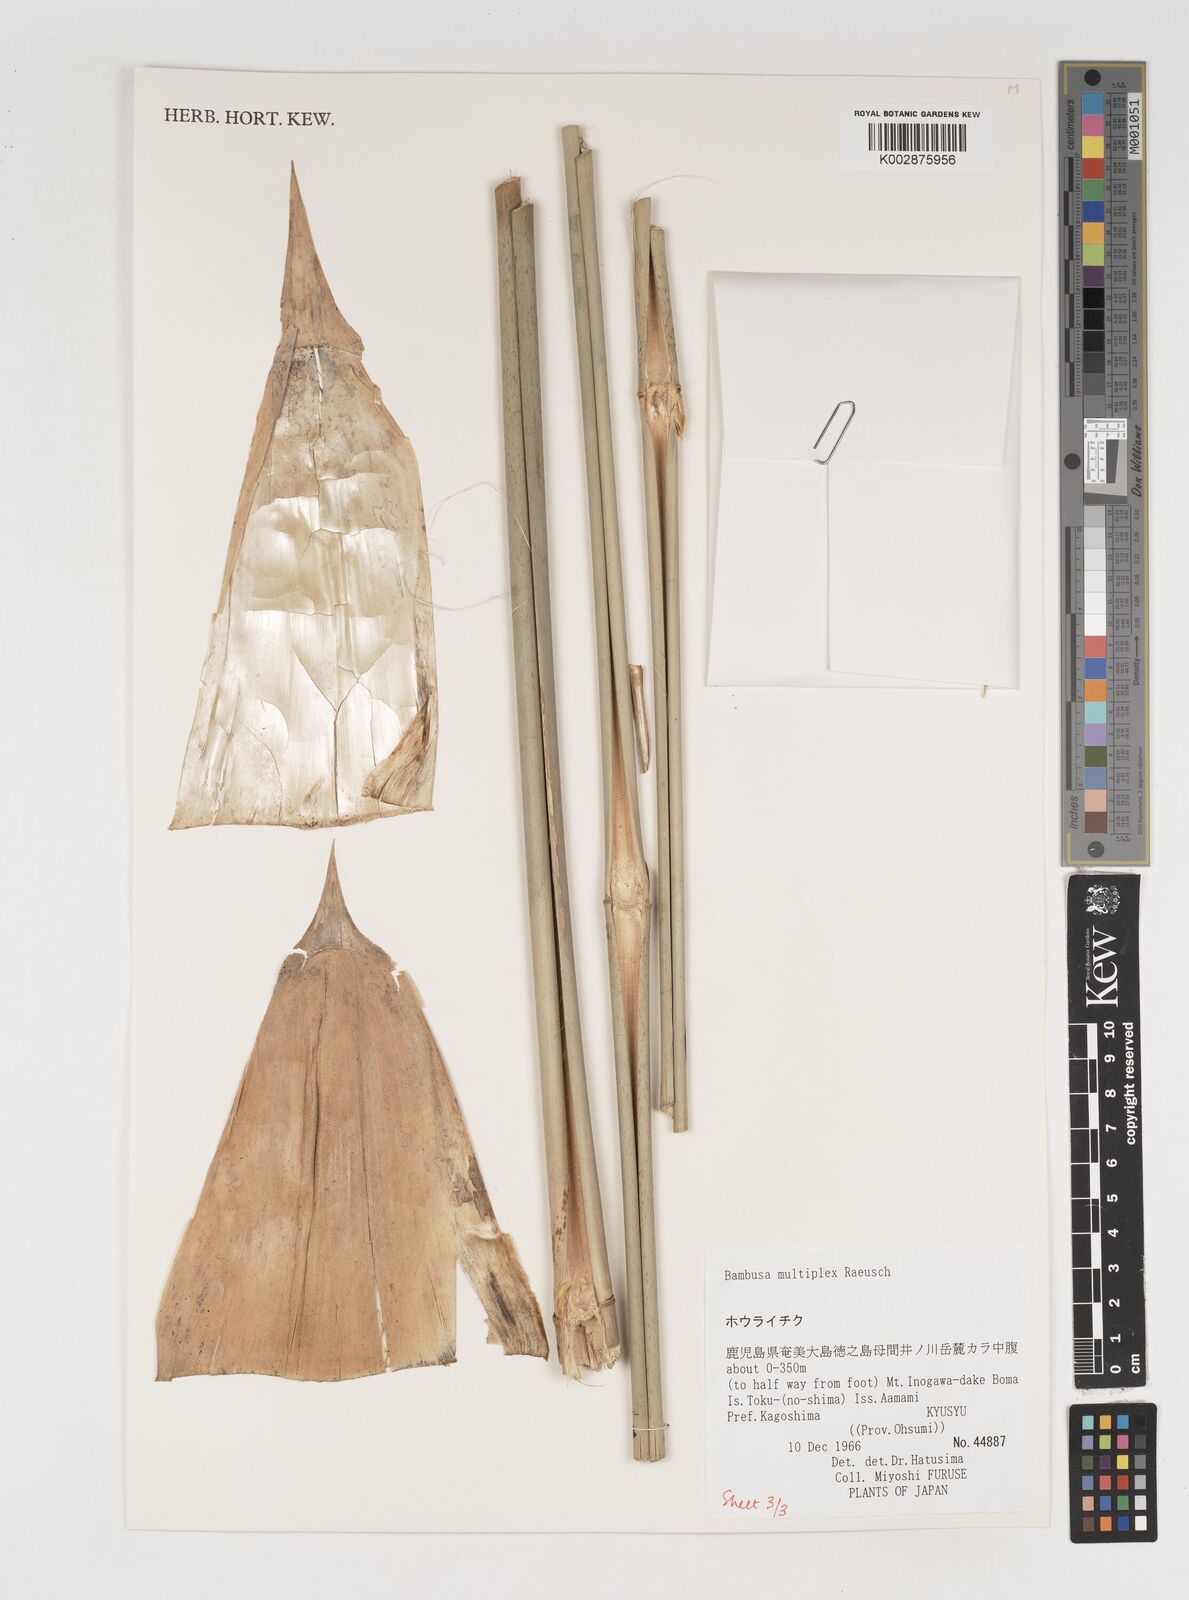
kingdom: Plantae
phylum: Tracheophyta
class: Liliopsida
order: Poales
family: Poaceae
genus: Bambusa
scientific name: Bambusa multiplex
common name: Hedge bamboo
